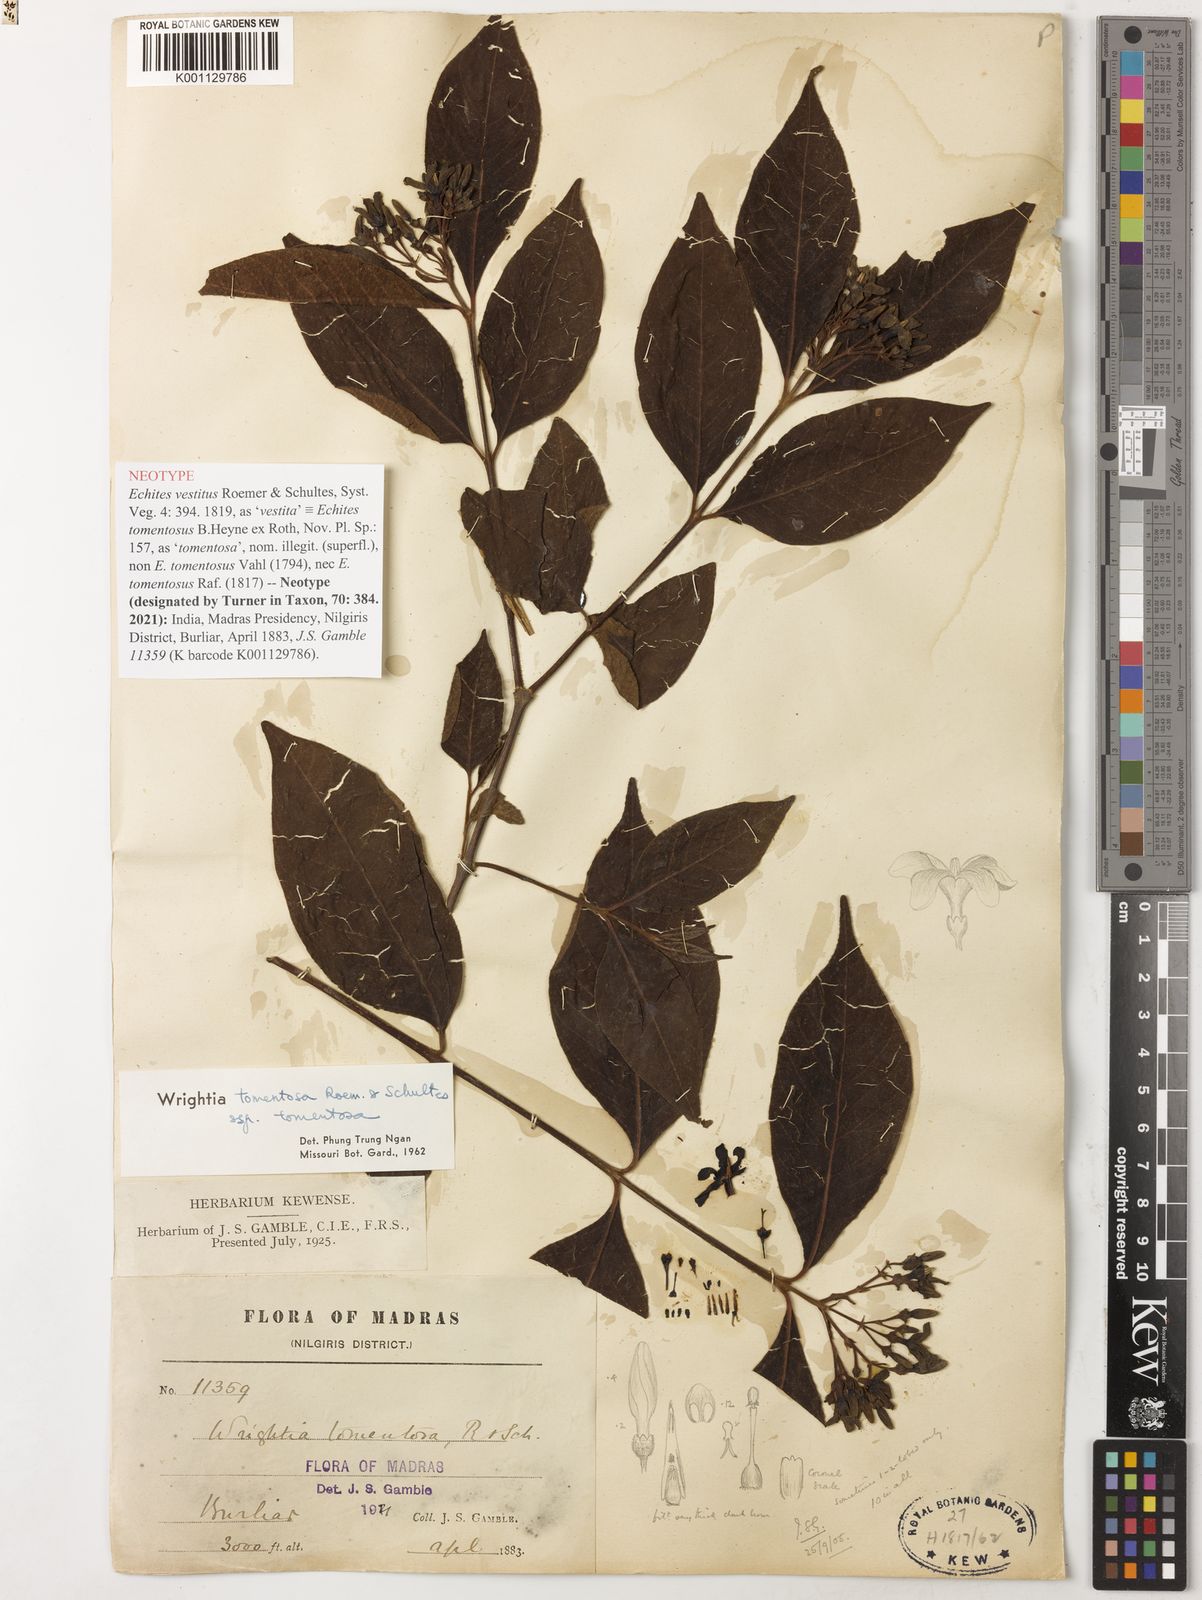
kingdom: Plantae
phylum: Tracheophyta
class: Magnoliopsida
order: Gentianales
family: Apocynaceae
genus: Wrightia
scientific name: Wrightia arborea
